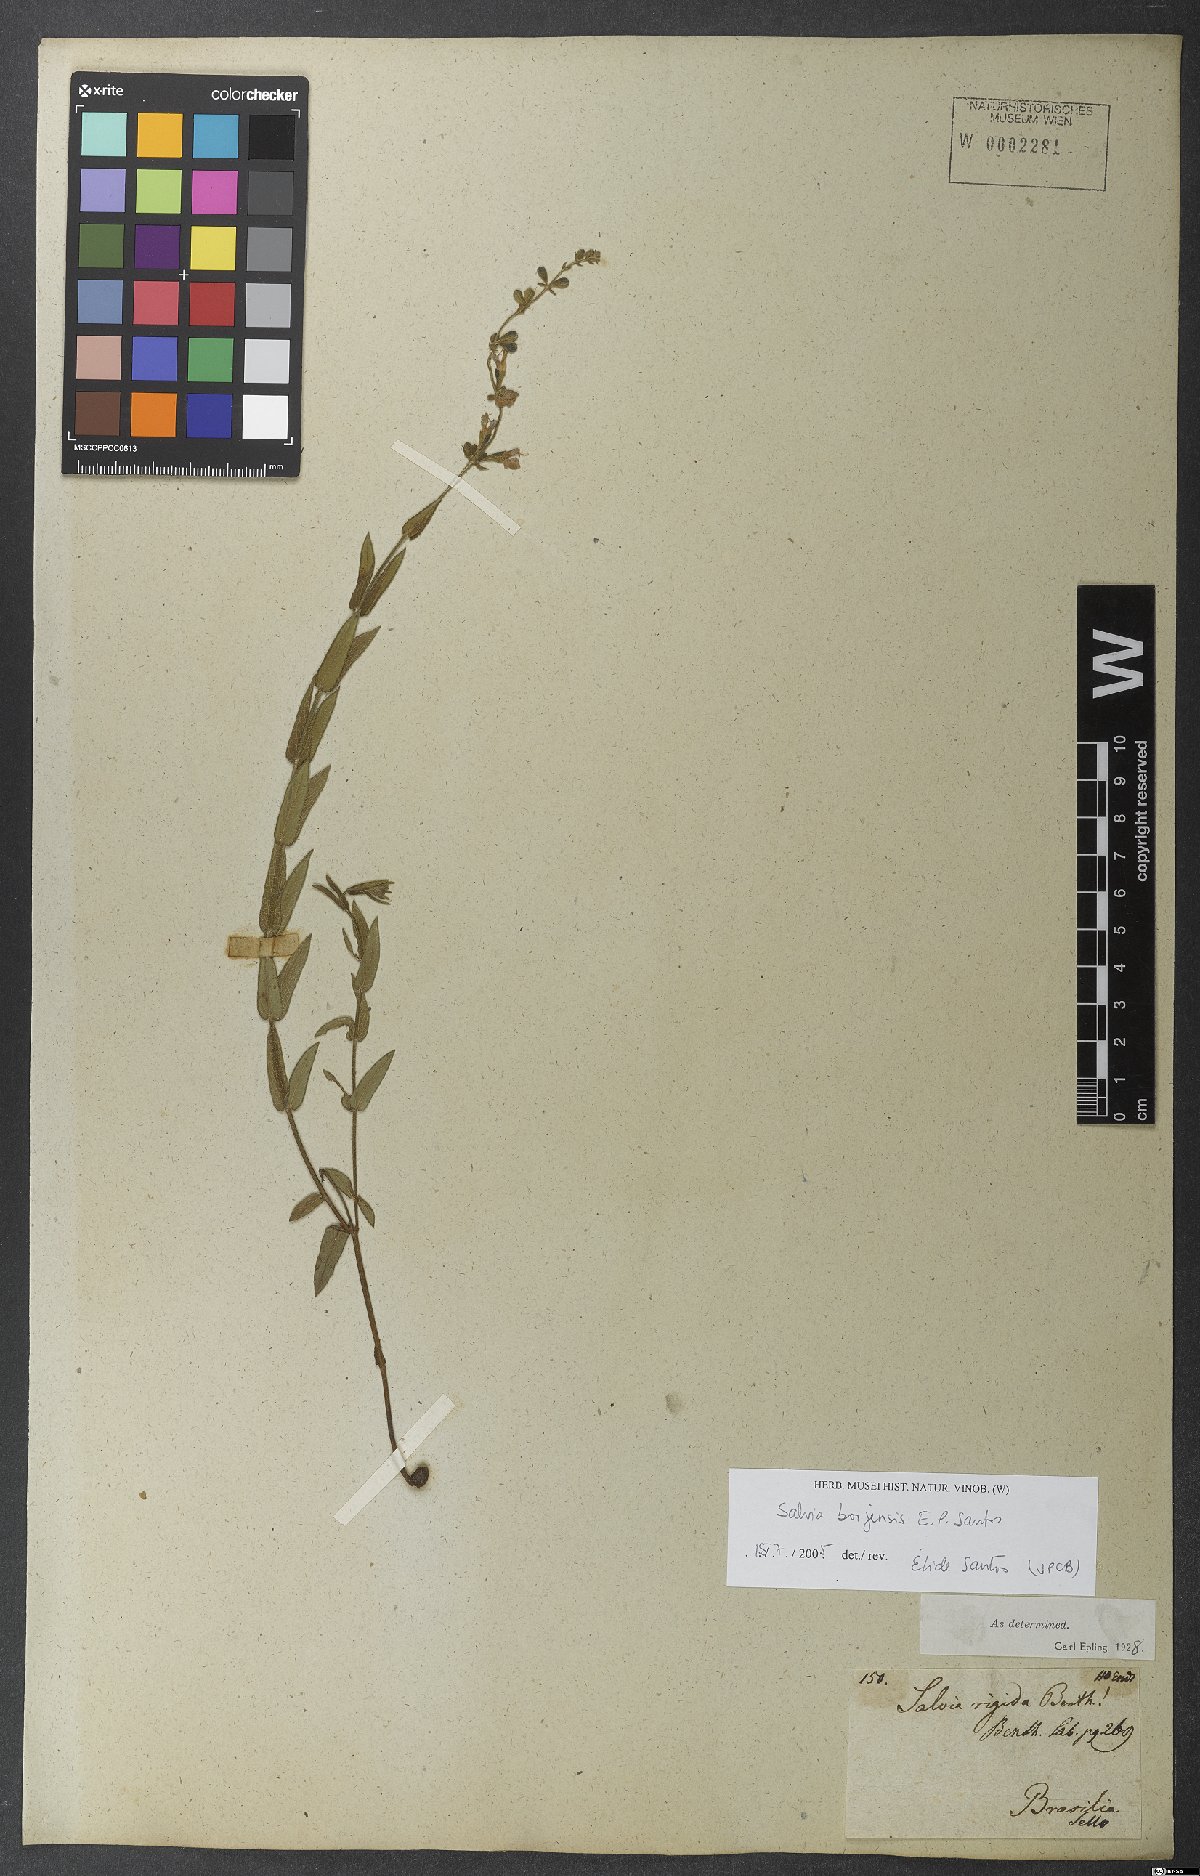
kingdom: Plantae
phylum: Tracheophyta
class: Magnoliopsida
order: Lamiales
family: Lamiaceae
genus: Salvia
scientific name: Salvia nervosa
